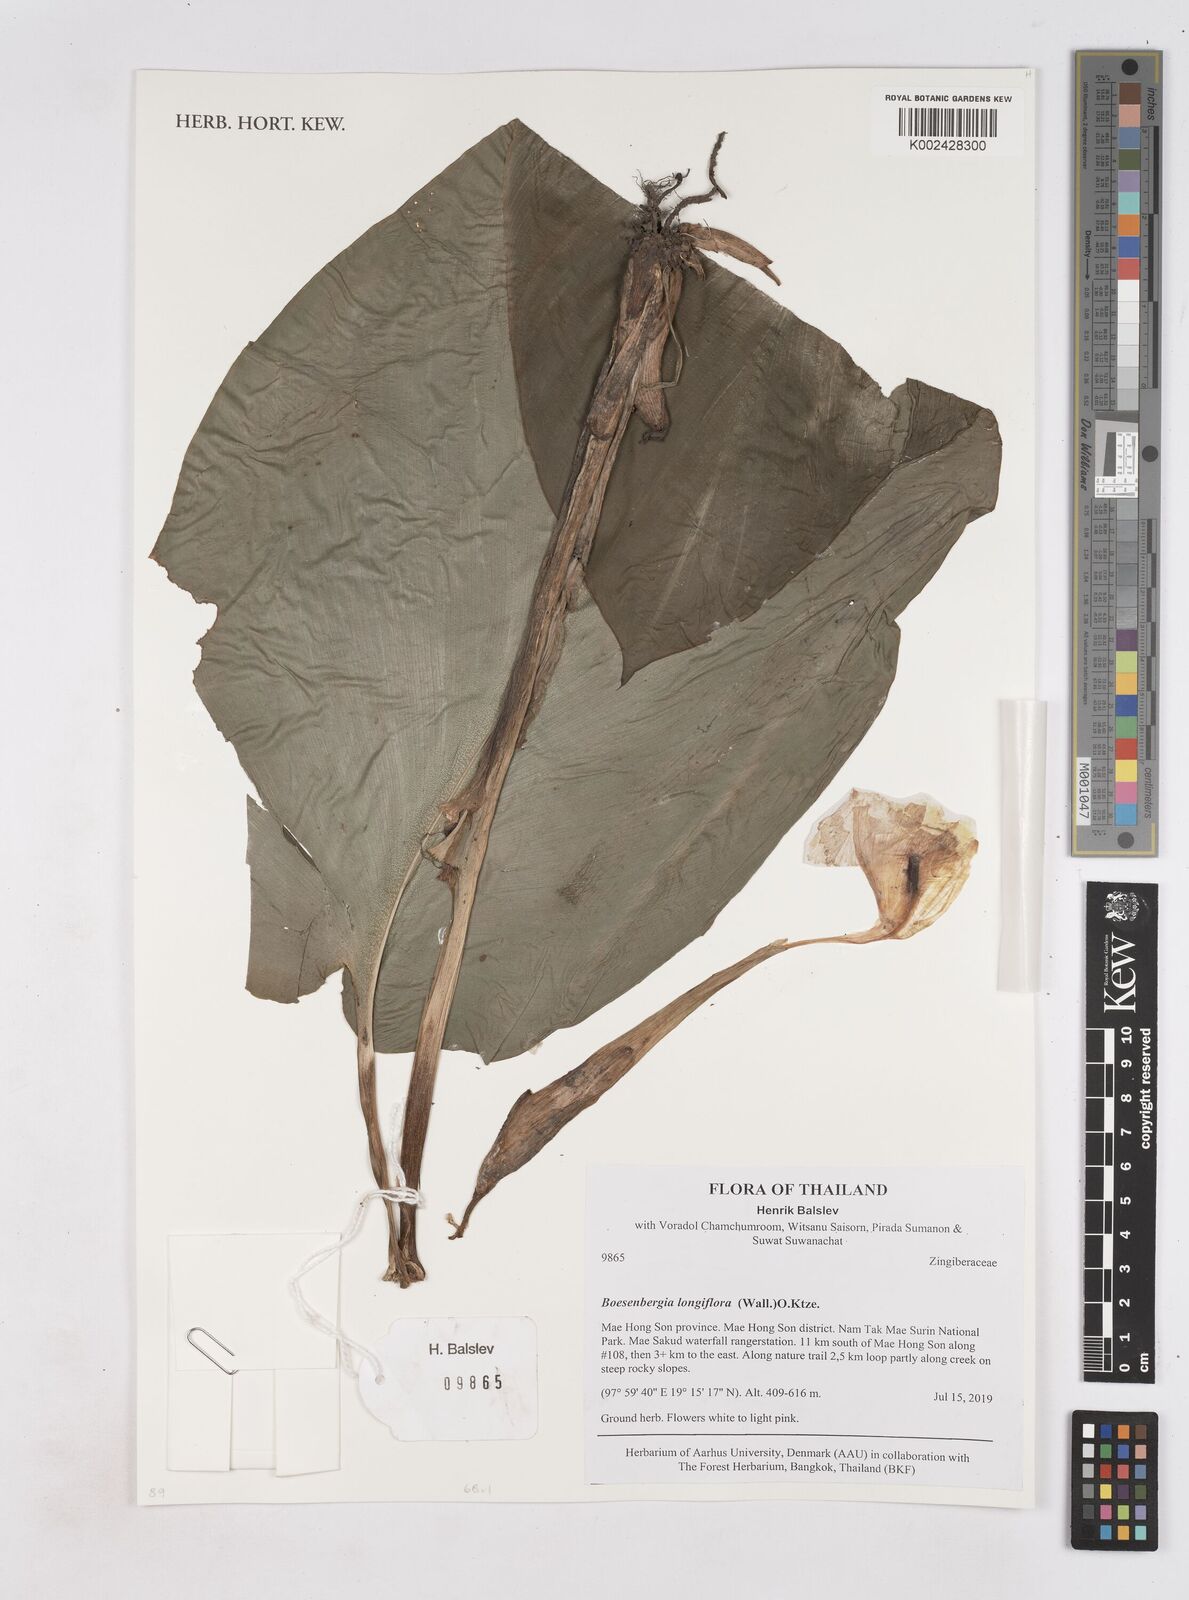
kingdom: Plantae
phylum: Tracheophyta
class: Liliopsida
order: Zingiberales
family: Zingiberaceae
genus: Boesenbergia
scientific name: Boesenbergia longiflora
